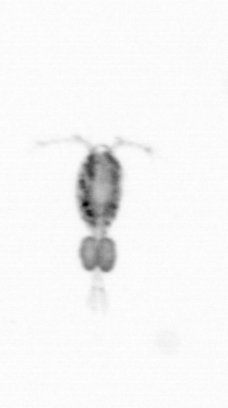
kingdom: Animalia
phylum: Arthropoda
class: Copepoda
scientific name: Copepoda
